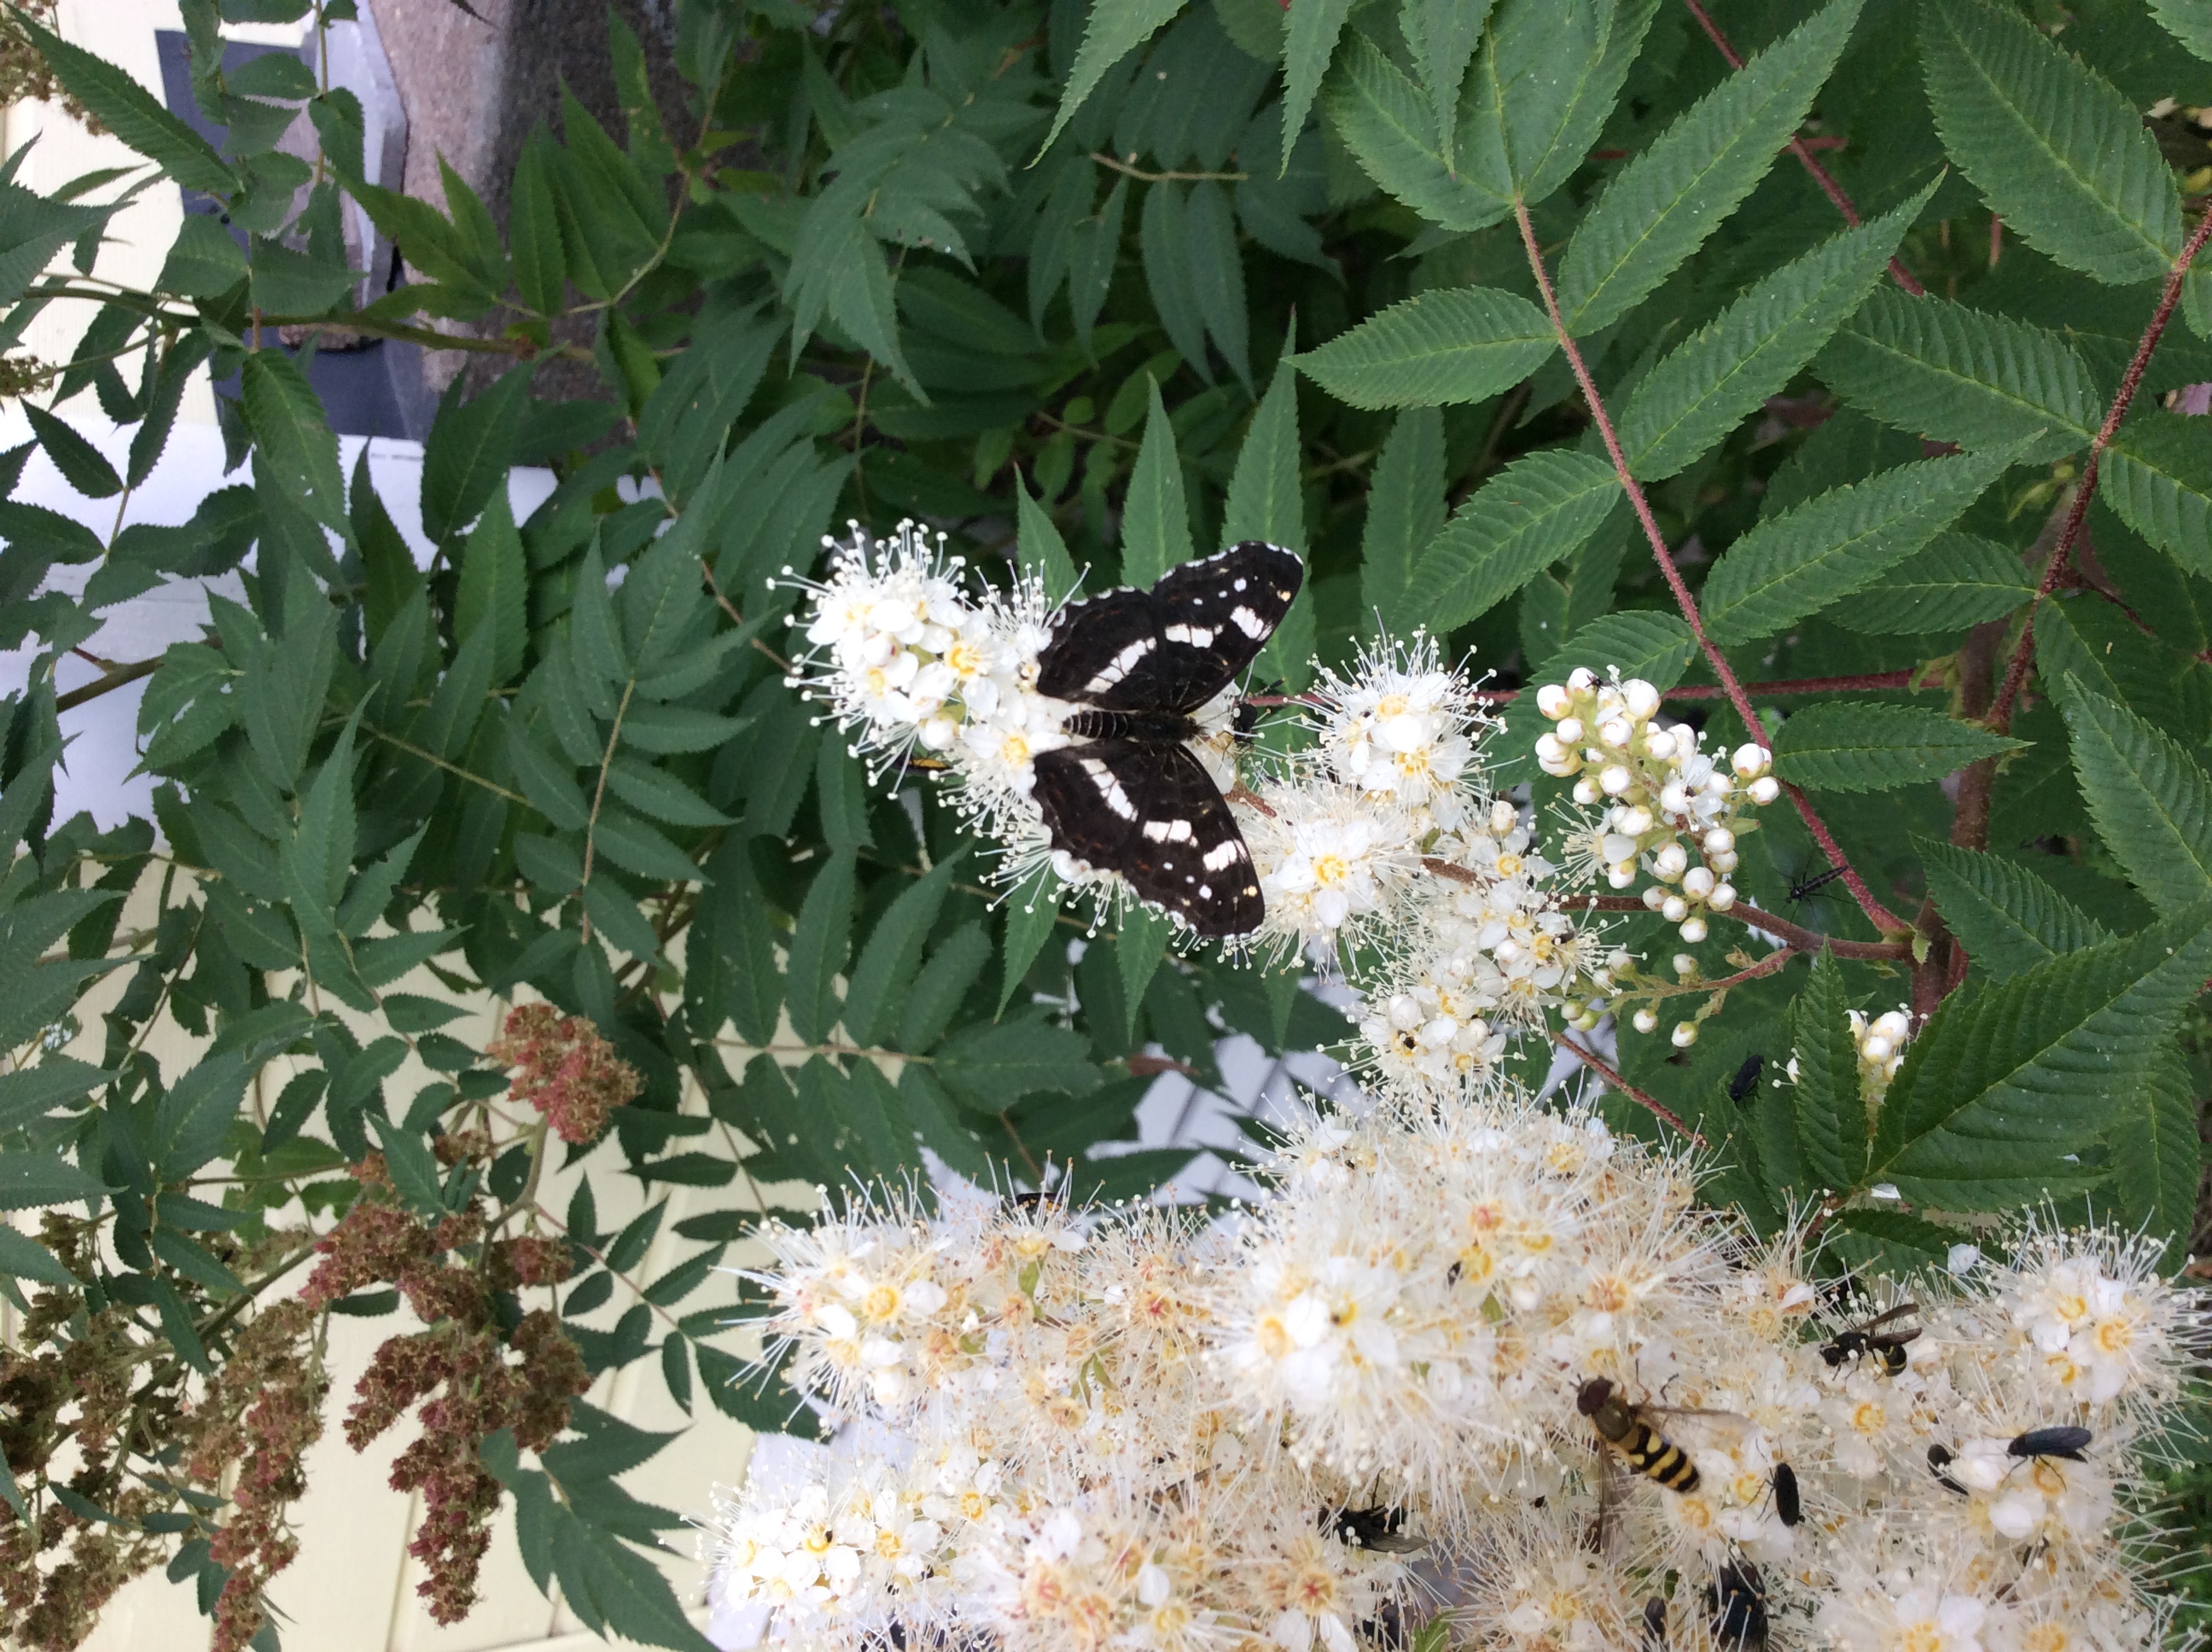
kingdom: Animalia
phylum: Arthropoda
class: Insecta
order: Lepidoptera
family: Nymphalidae
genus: Araschnia
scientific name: Araschnia levana
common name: Map butterfly
